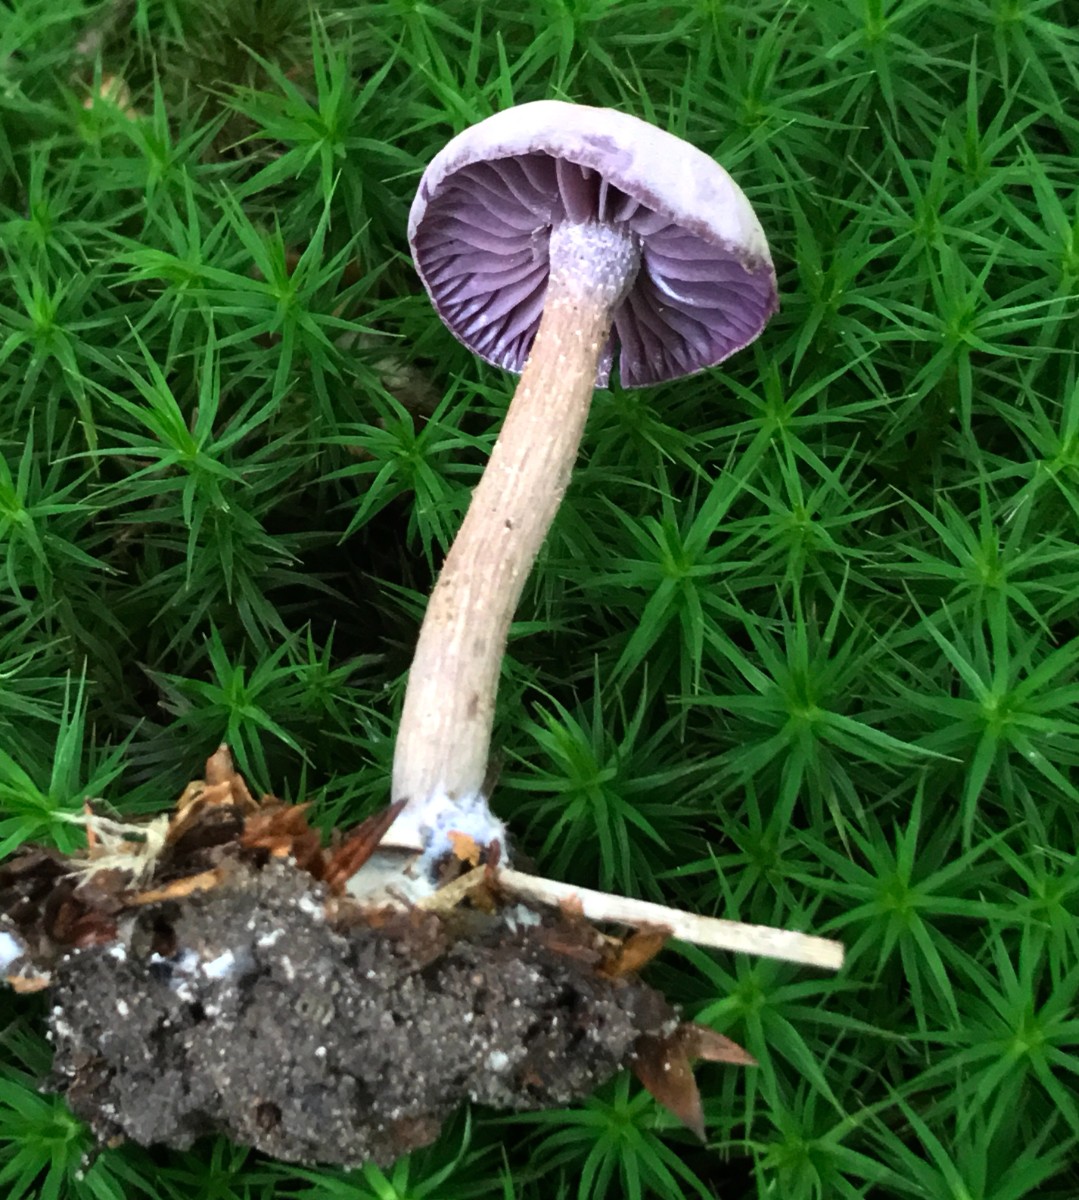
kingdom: Fungi
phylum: Basidiomycota
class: Agaricomycetes
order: Agaricales
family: Hydnangiaceae
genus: Laccaria
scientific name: Laccaria amethystina
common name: violet ametysthat
